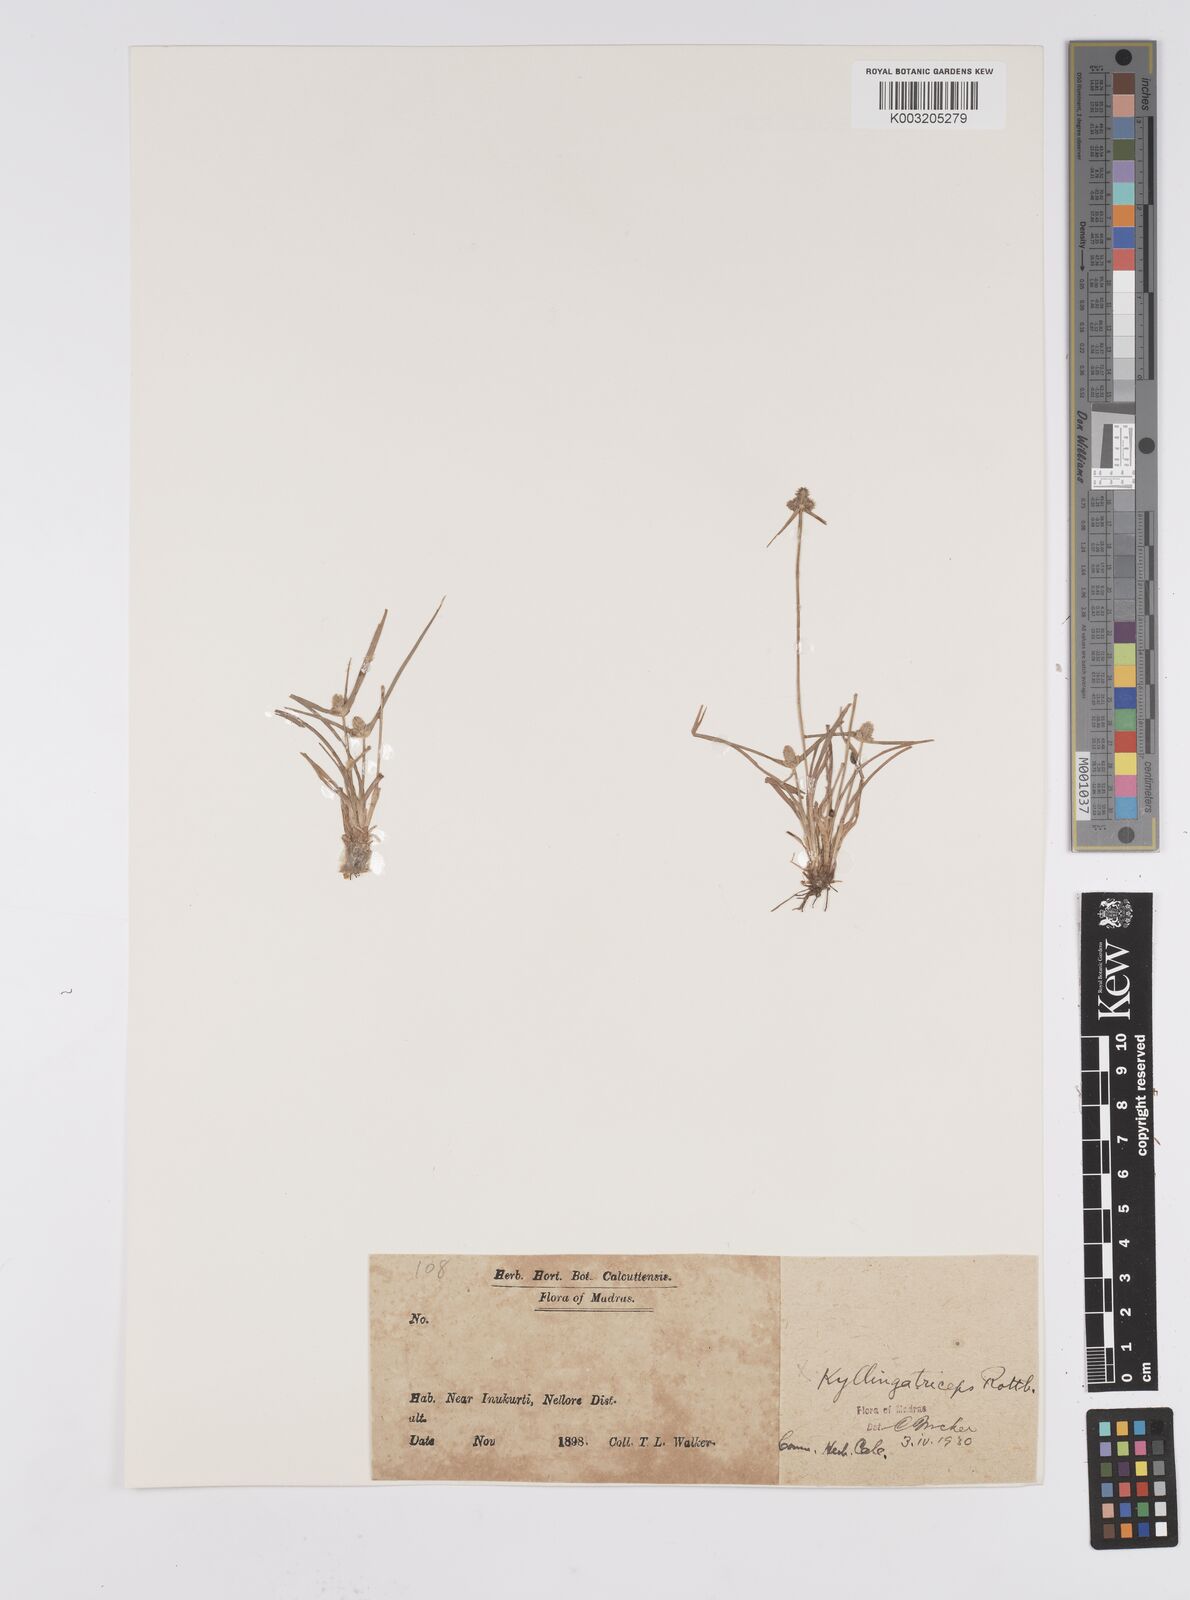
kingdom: Plantae
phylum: Tracheophyta
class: Liliopsida
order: Poales
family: Cyperaceae
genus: Cyperus
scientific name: Cyperus
